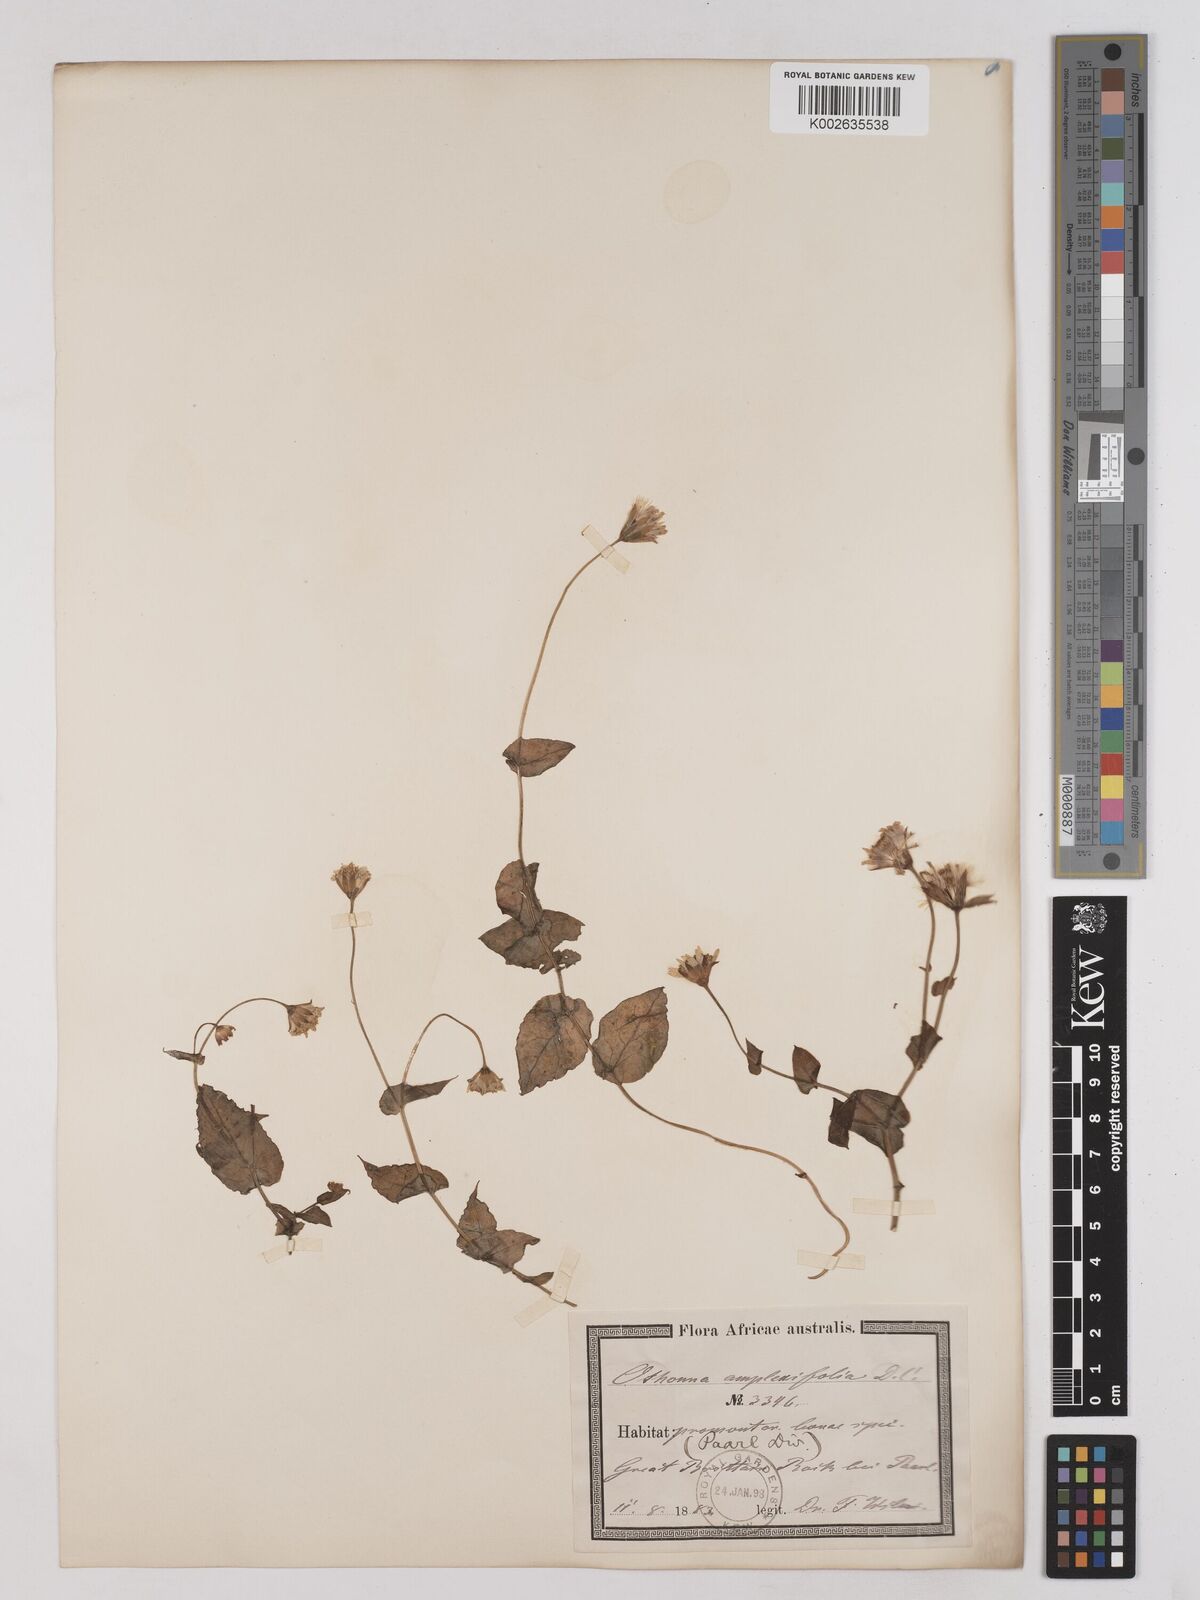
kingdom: Plantae
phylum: Tracheophyta
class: Magnoliopsida
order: Asterales
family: Asteraceae
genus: Othonna
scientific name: Othonna amplexifolia
